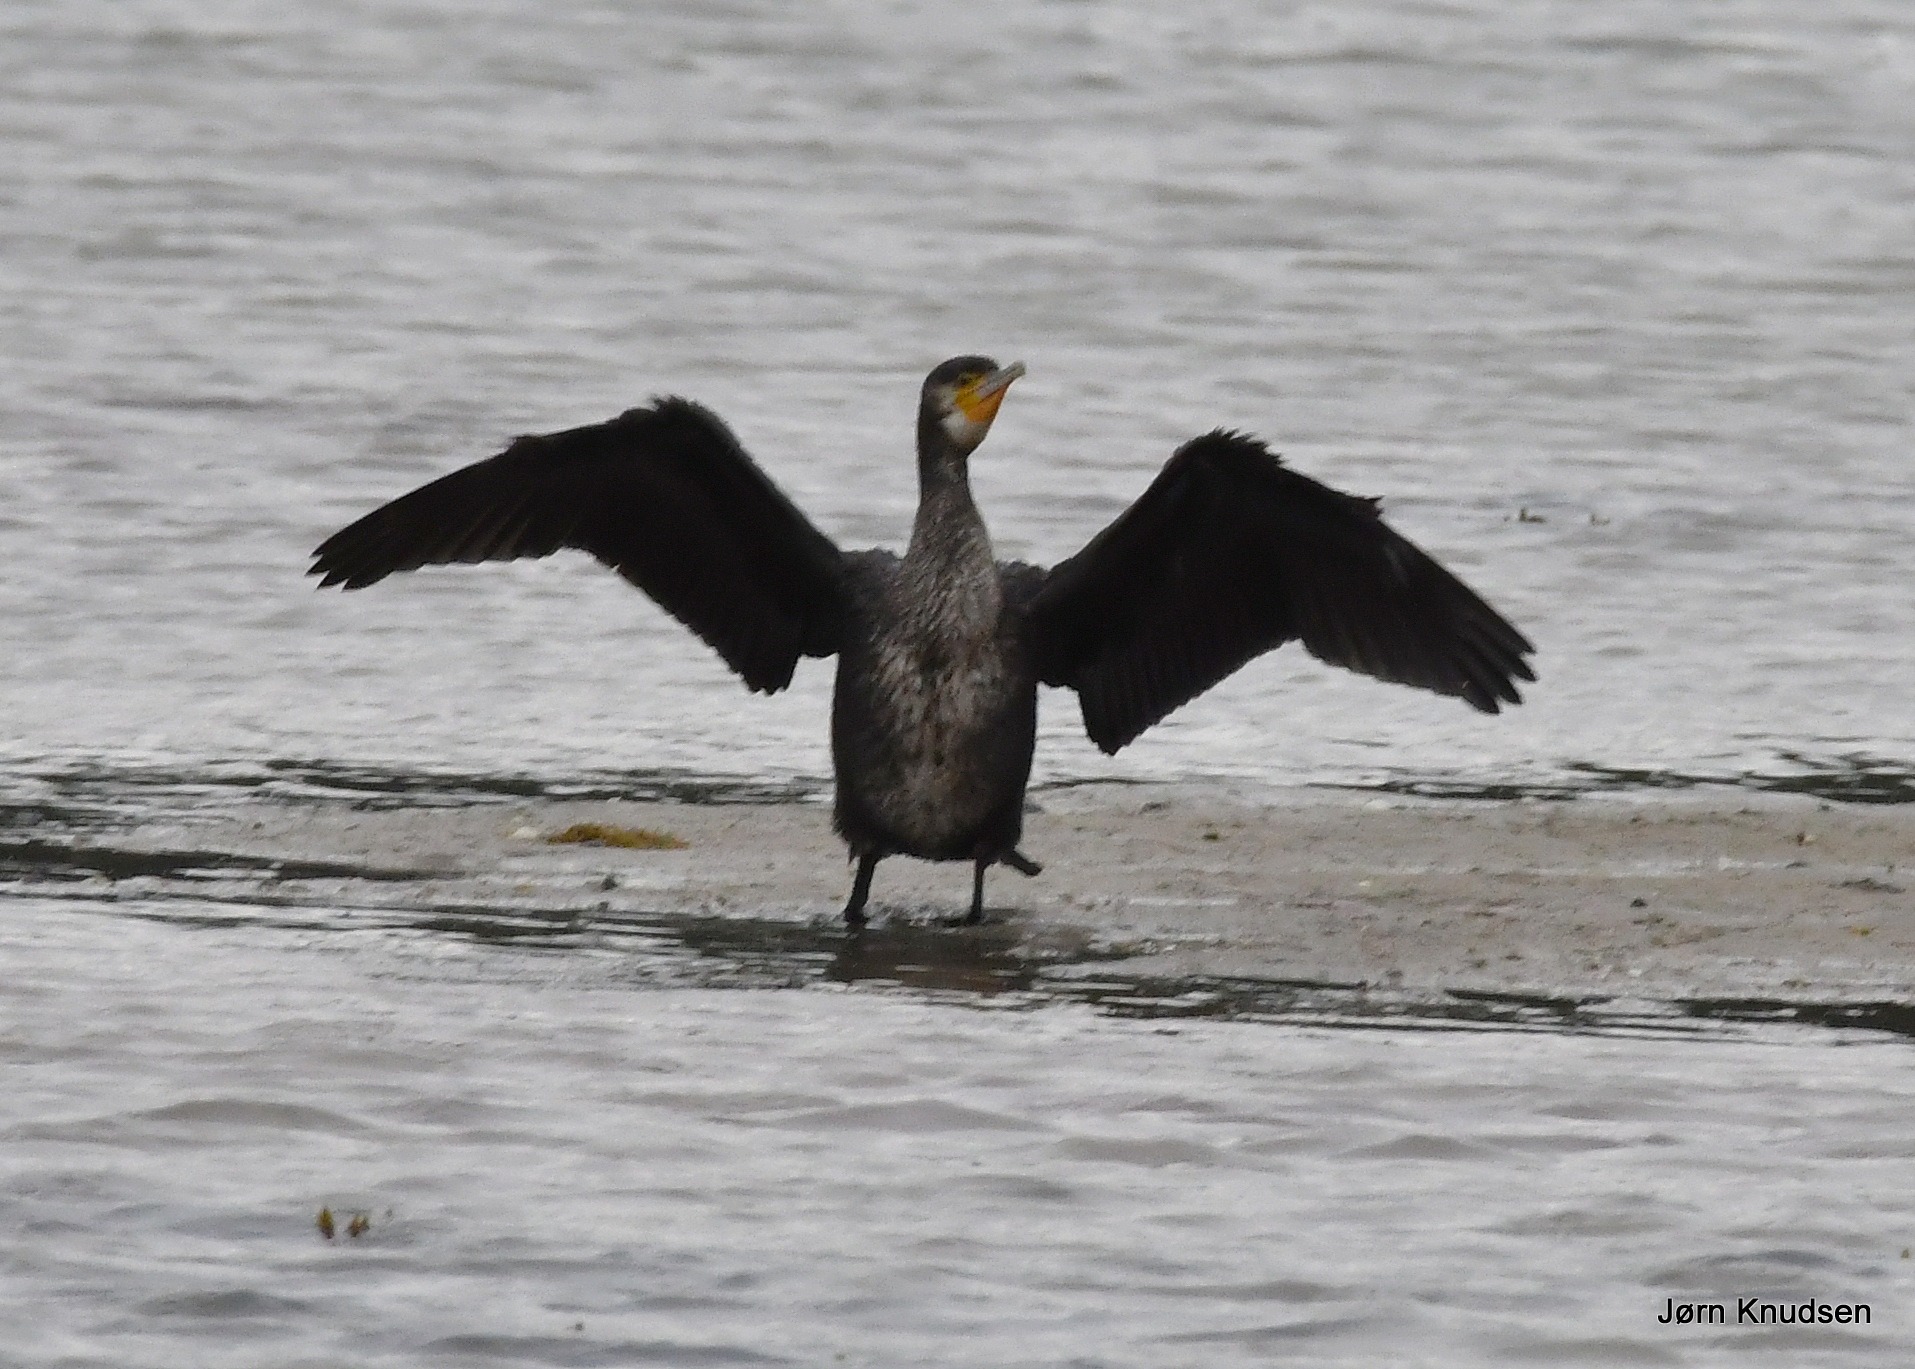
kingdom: Animalia
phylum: Chordata
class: Aves
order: Suliformes
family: Phalacrocoracidae
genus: Phalacrocorax
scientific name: Phalacrocorax carbo
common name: Skarv
